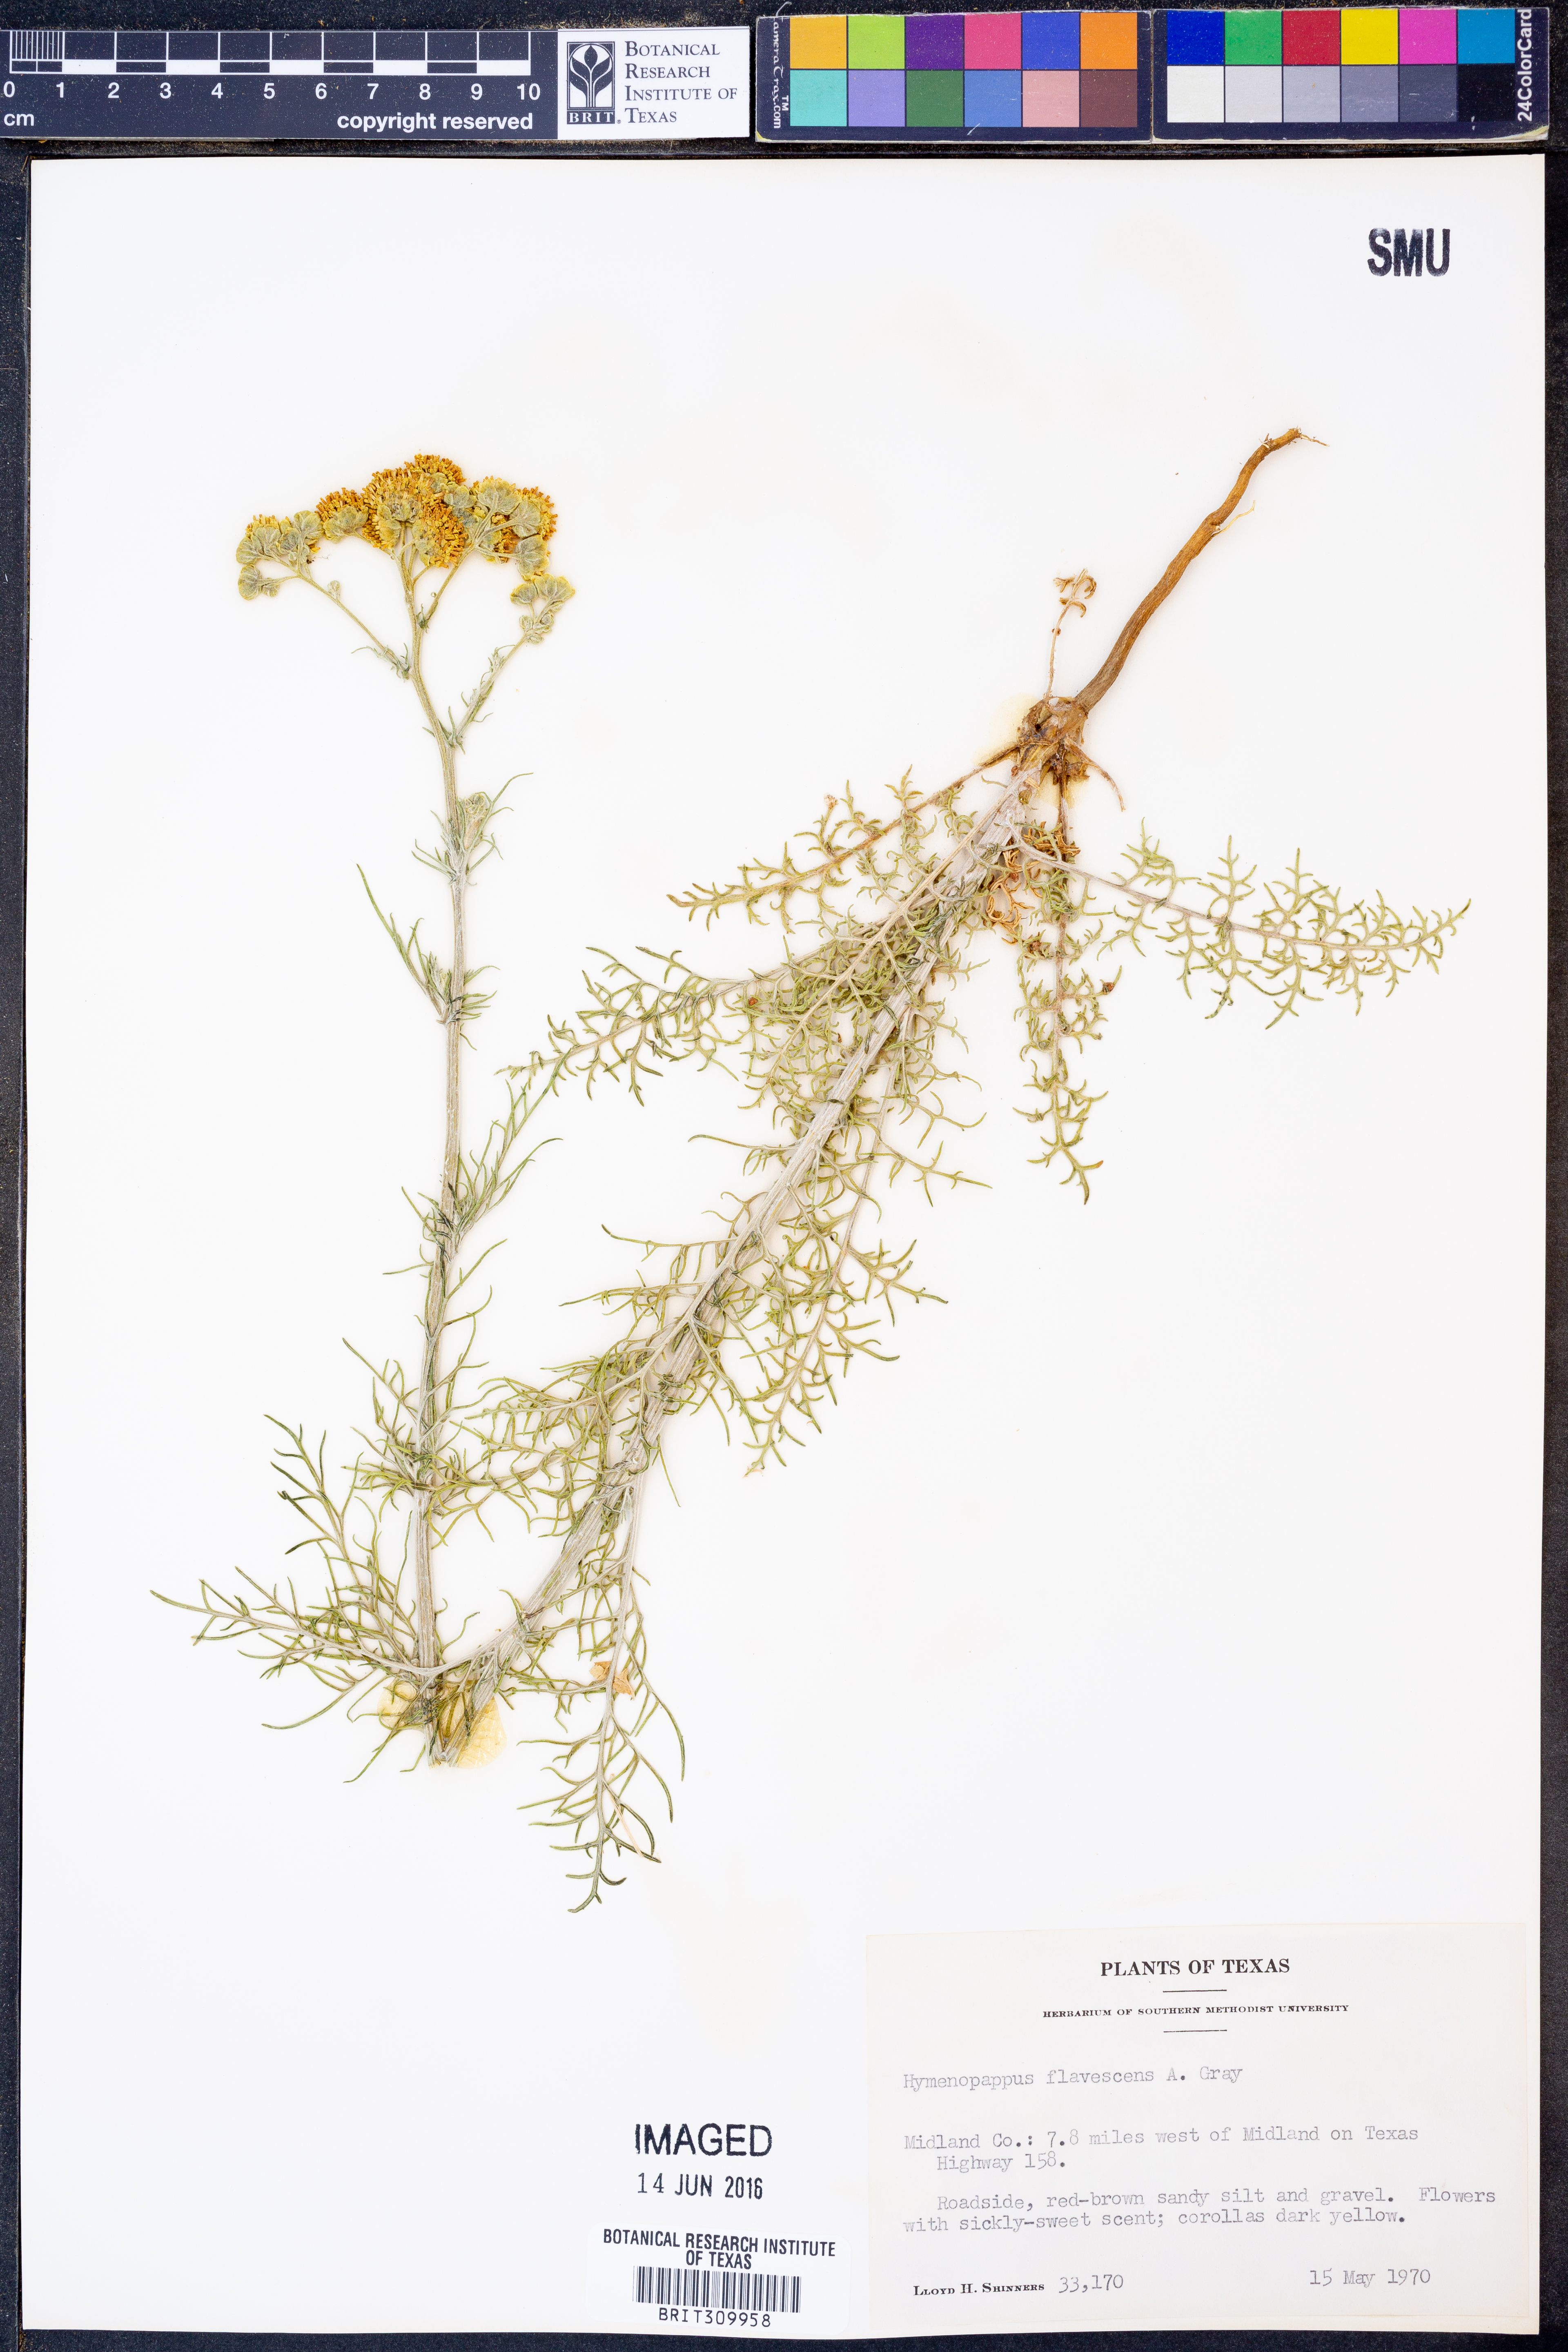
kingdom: Plantae
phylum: Tracheophyta
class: Magnoliopsida
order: Asterales
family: Asteraceae
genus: Hymenopappus
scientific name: Hymenopappus flavescens
